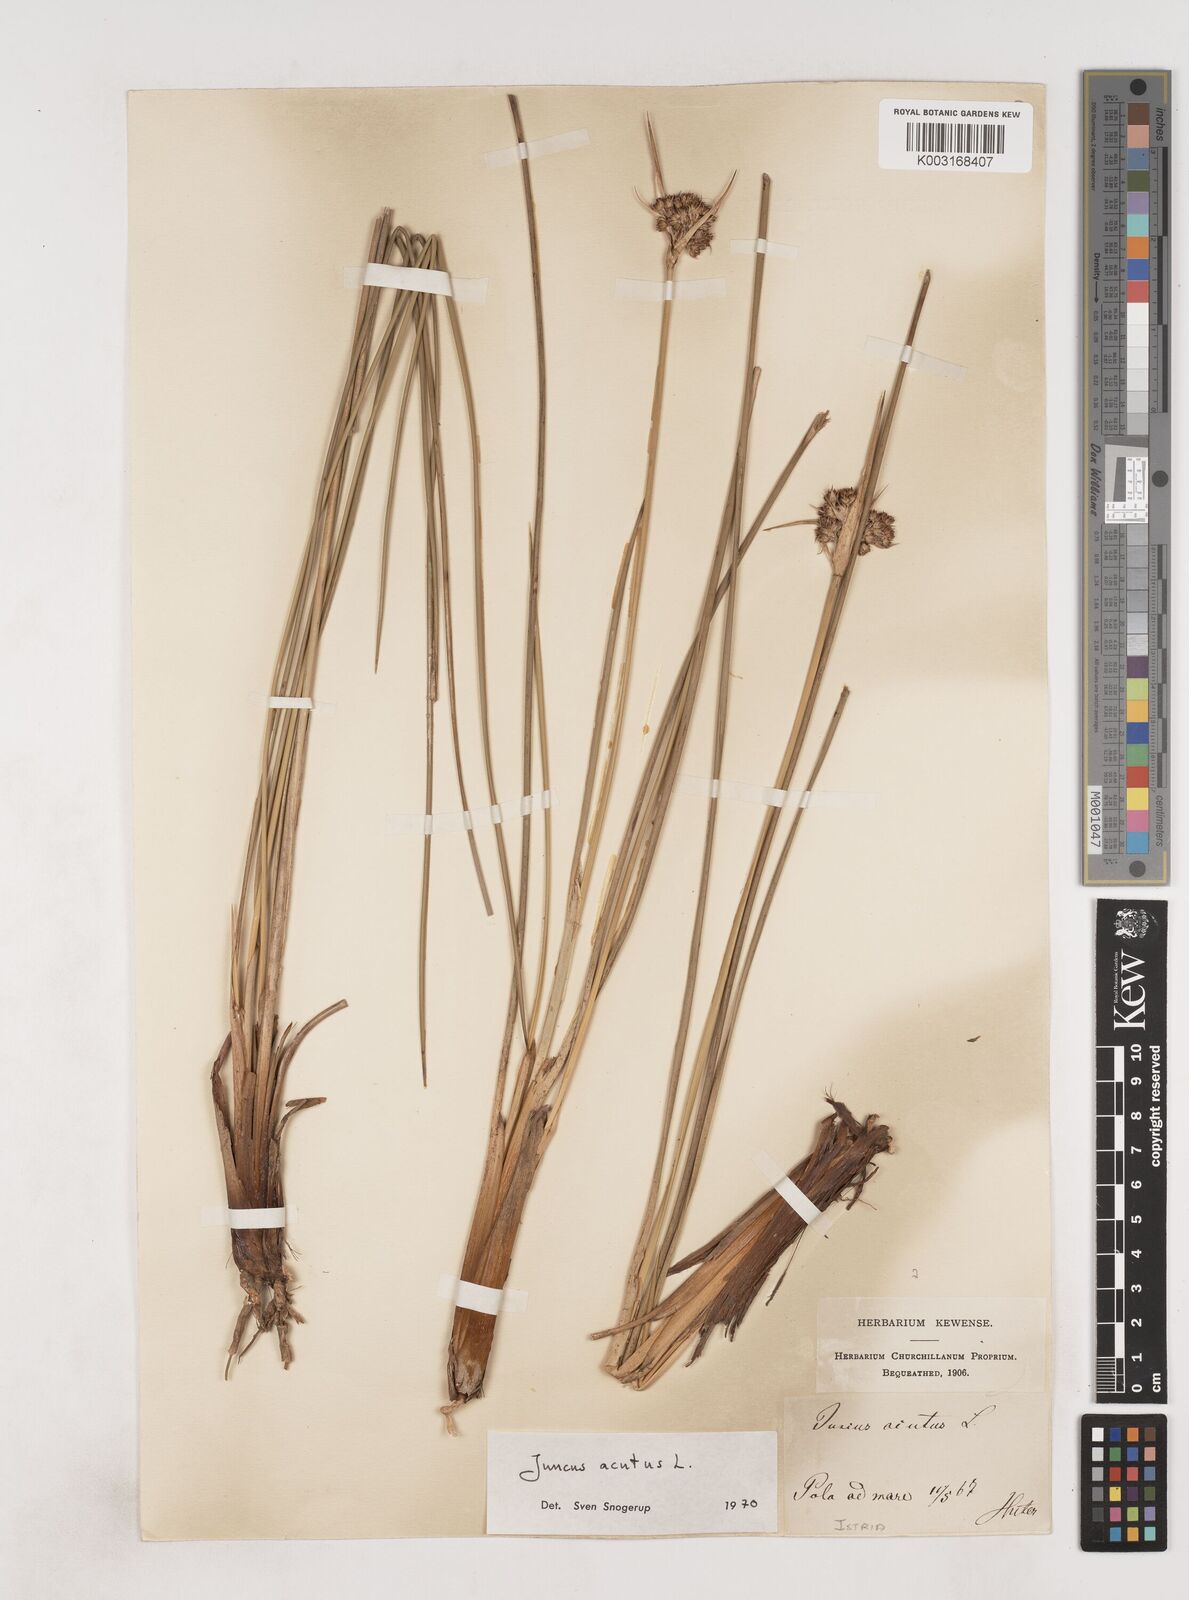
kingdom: Plantae
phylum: Tracheophyta
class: Liliopsida
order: Poales
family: Juncaceae
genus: Juncus
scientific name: Juncus acutus
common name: Sharp rush
